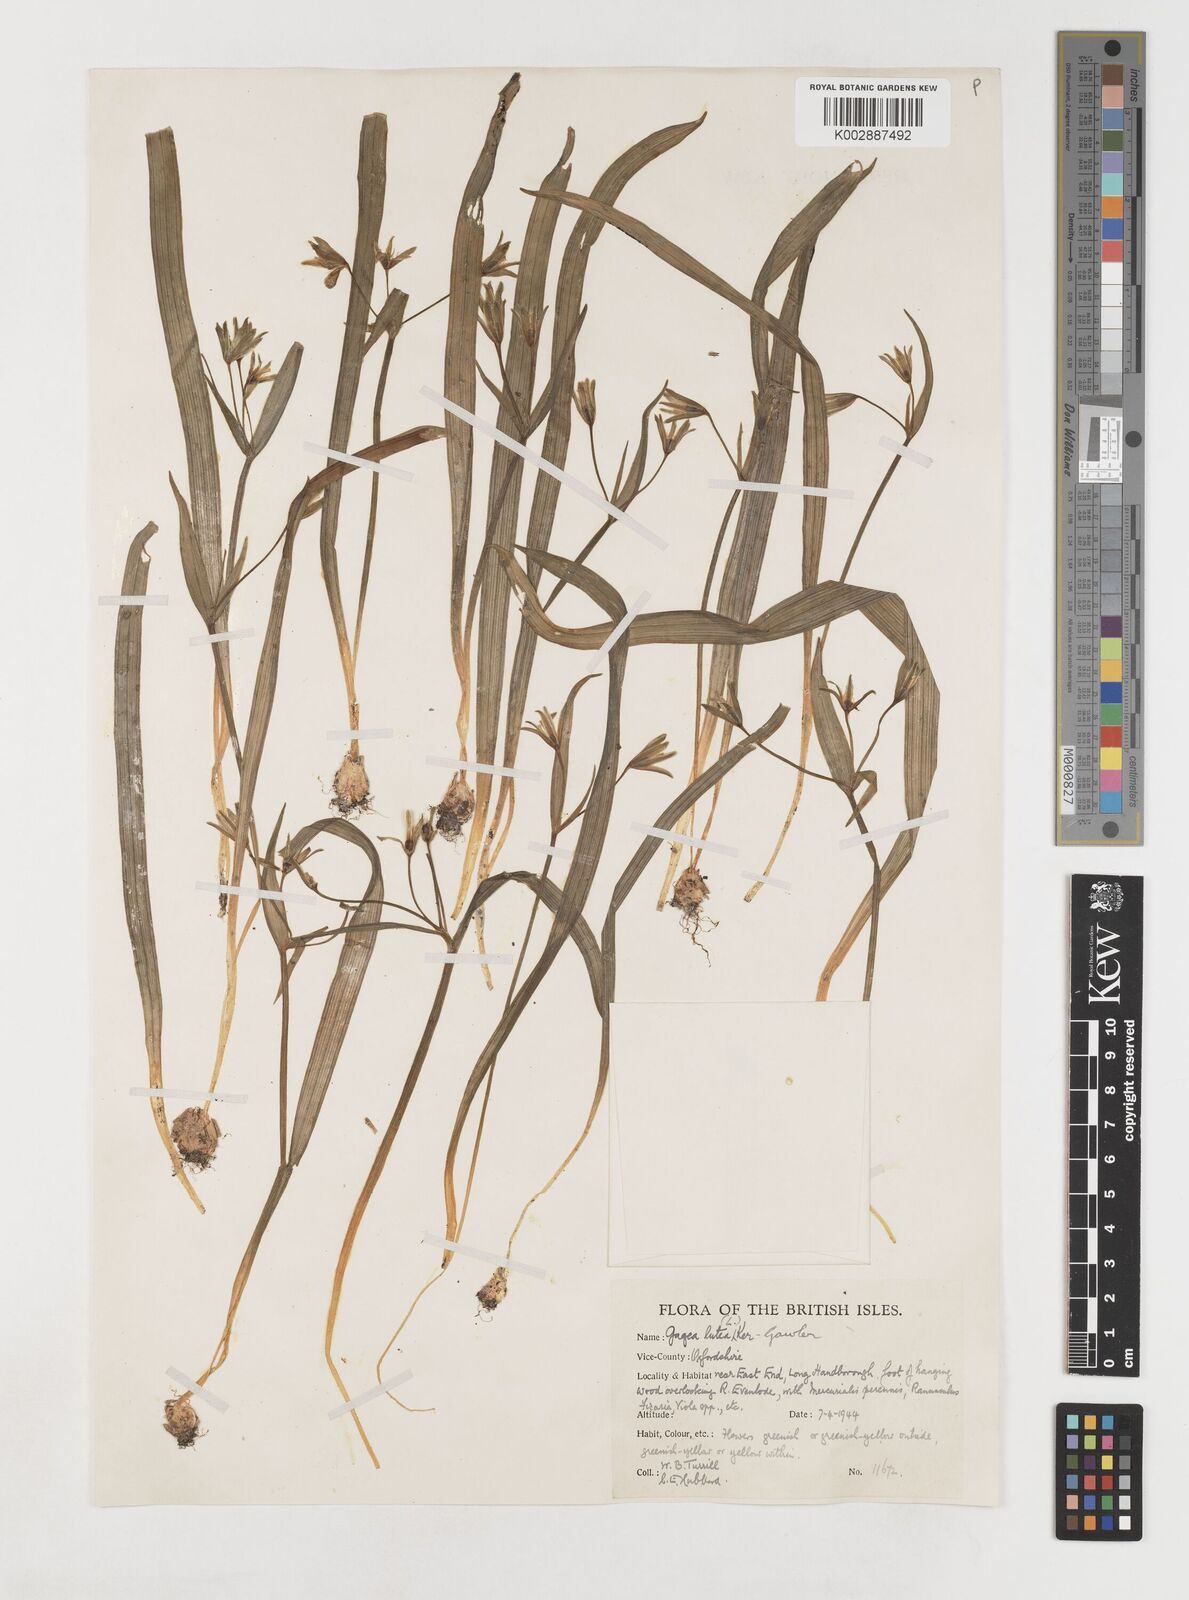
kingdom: Plantae
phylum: Tracheophyta
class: Liliopsida
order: Liliales
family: Liliaceae
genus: Gagea
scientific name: Gagea lutea
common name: Yellow star-of-bethlehem
